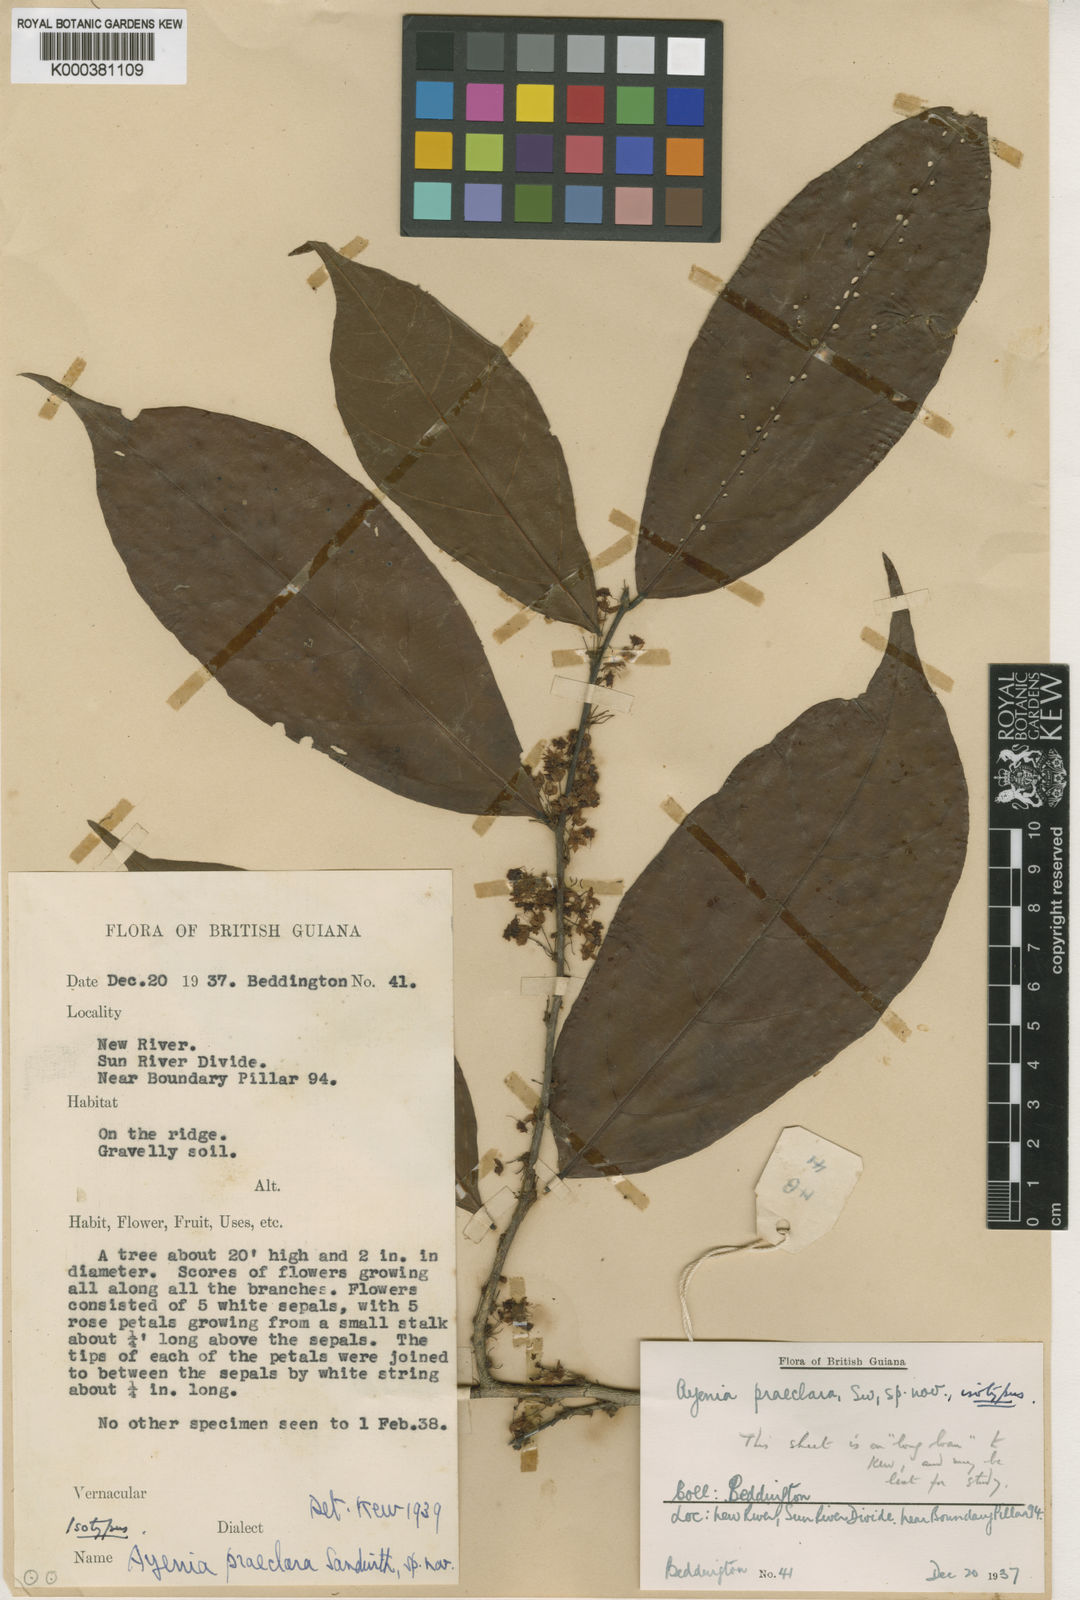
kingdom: Plantae
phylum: Tracheophyta
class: Magnoliopsida
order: Malvales
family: Malvaceae
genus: Ayenia
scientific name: Ayenia praeclara
